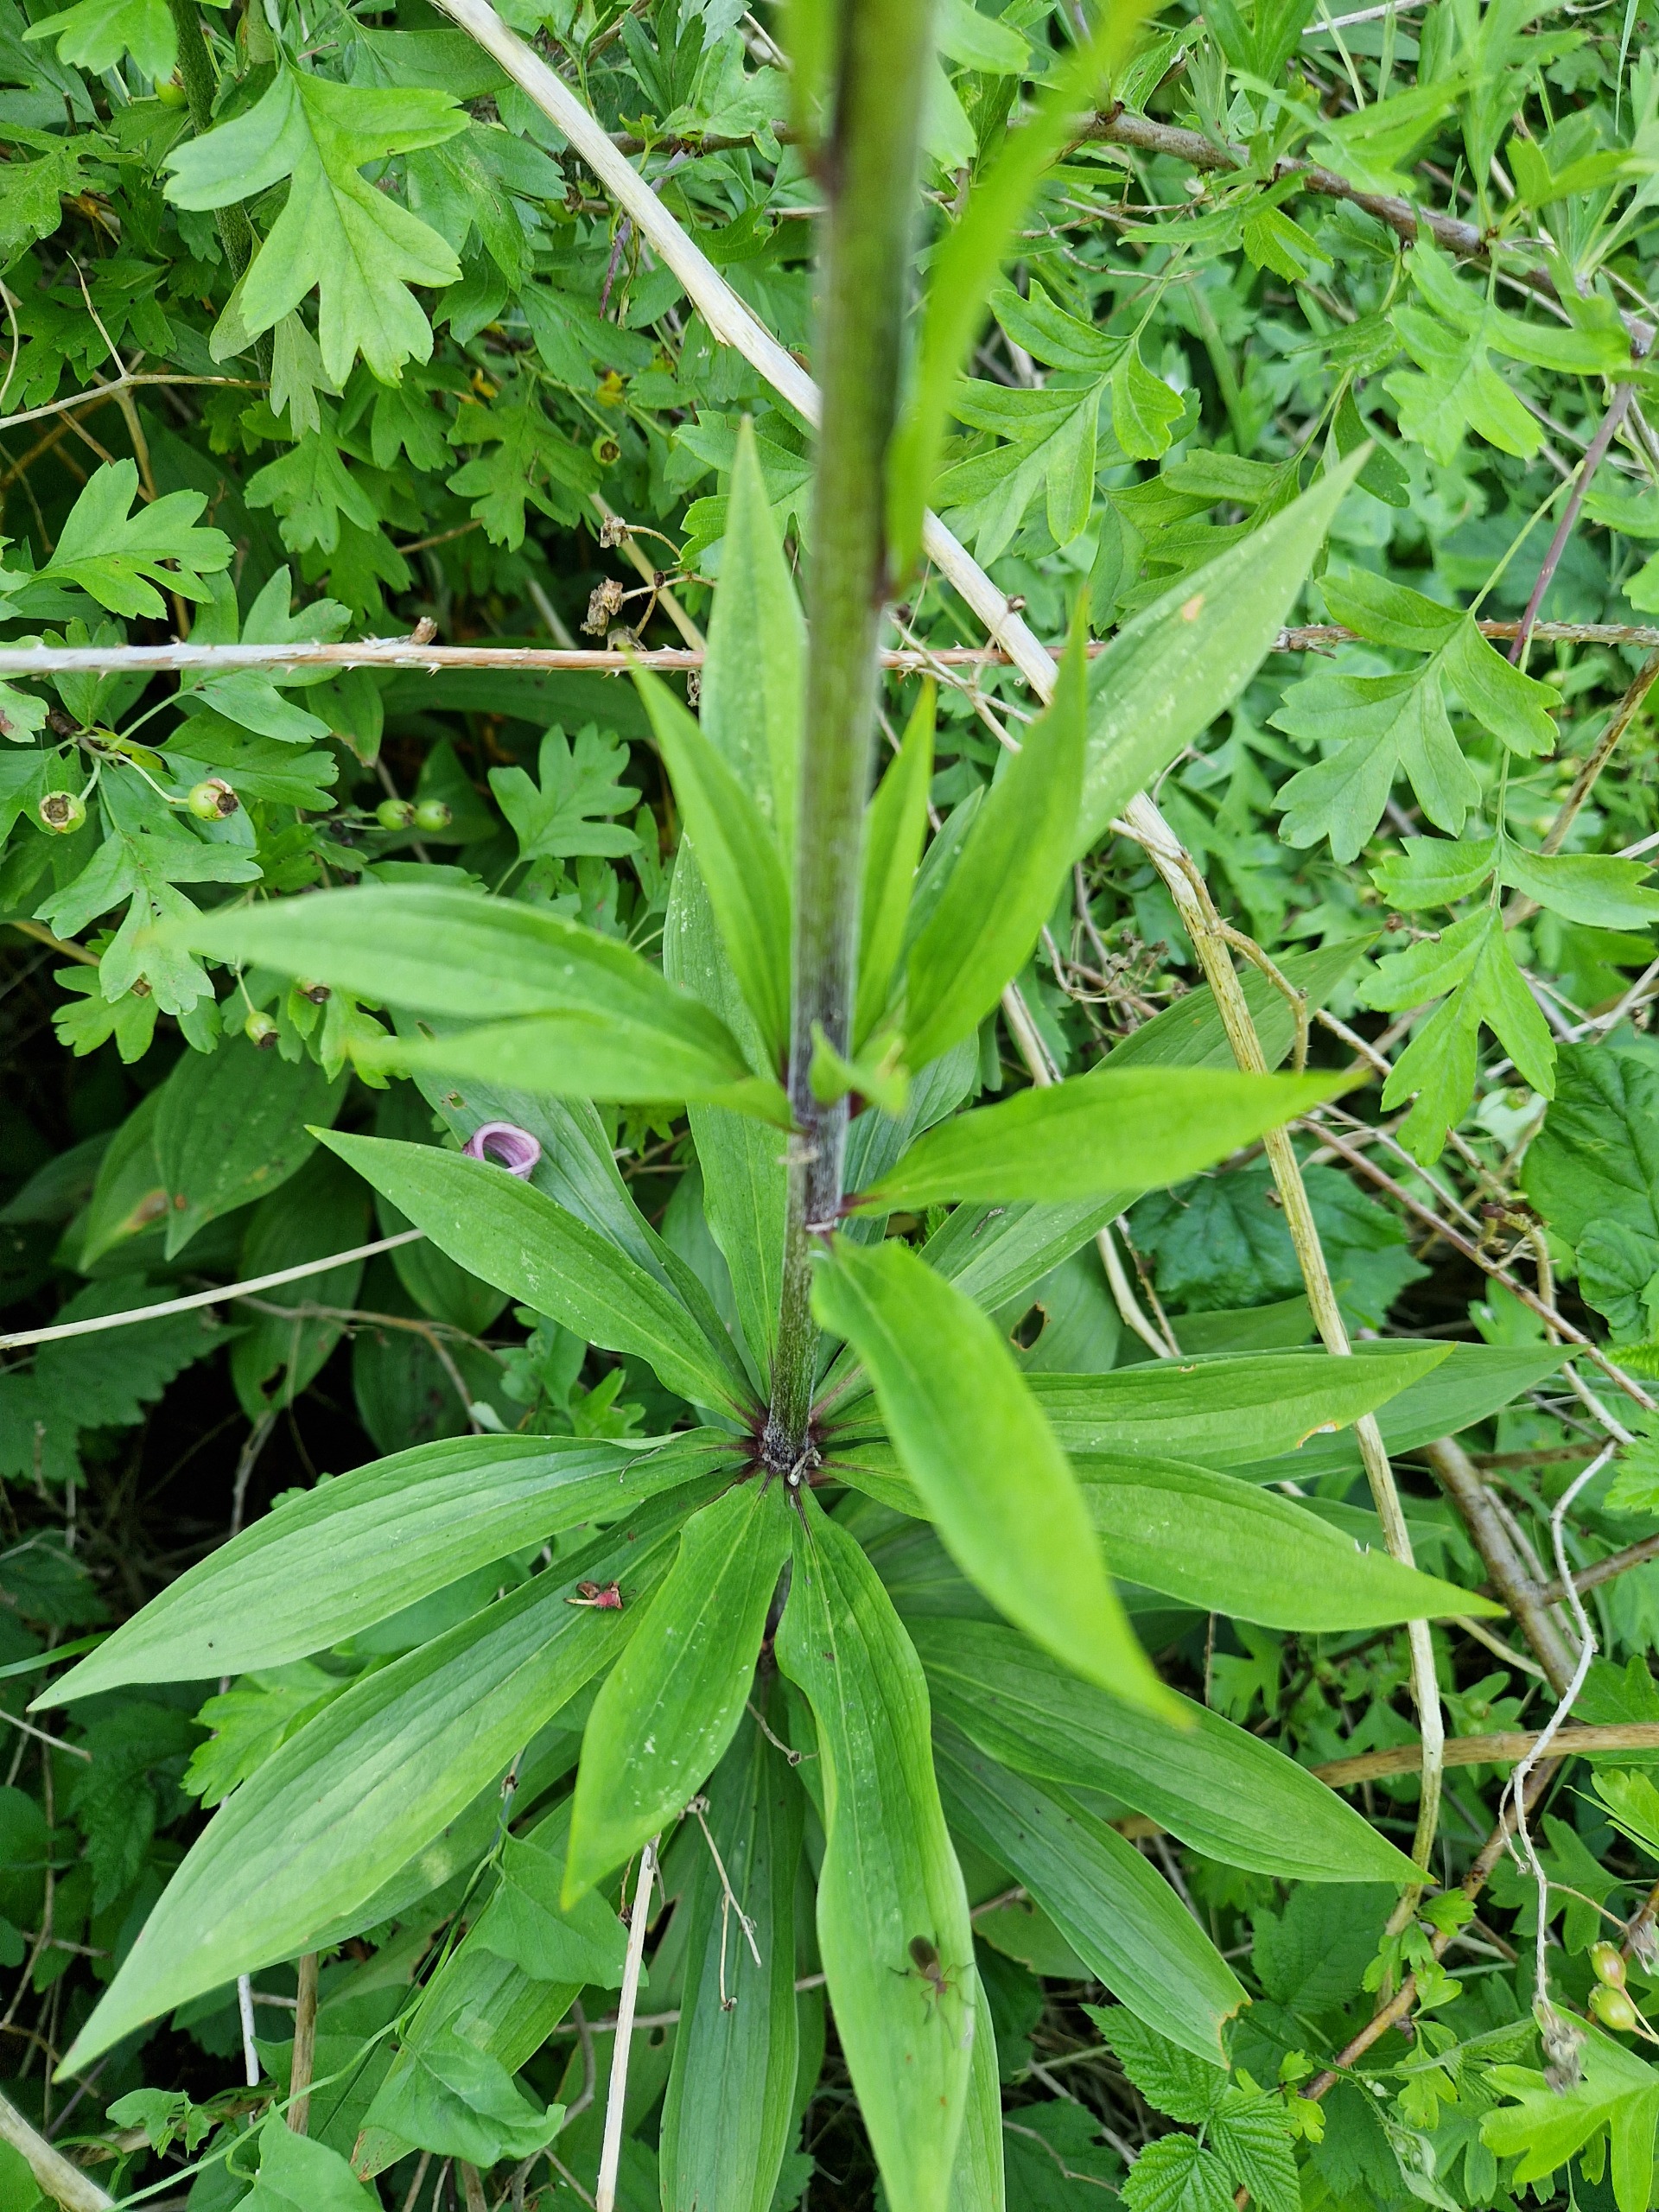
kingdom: Plantae
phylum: Tracheophyta
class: Liliopsida
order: Liliales
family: Liliaceae
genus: Lilium
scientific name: Lilium martagon
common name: Krans-lilje
